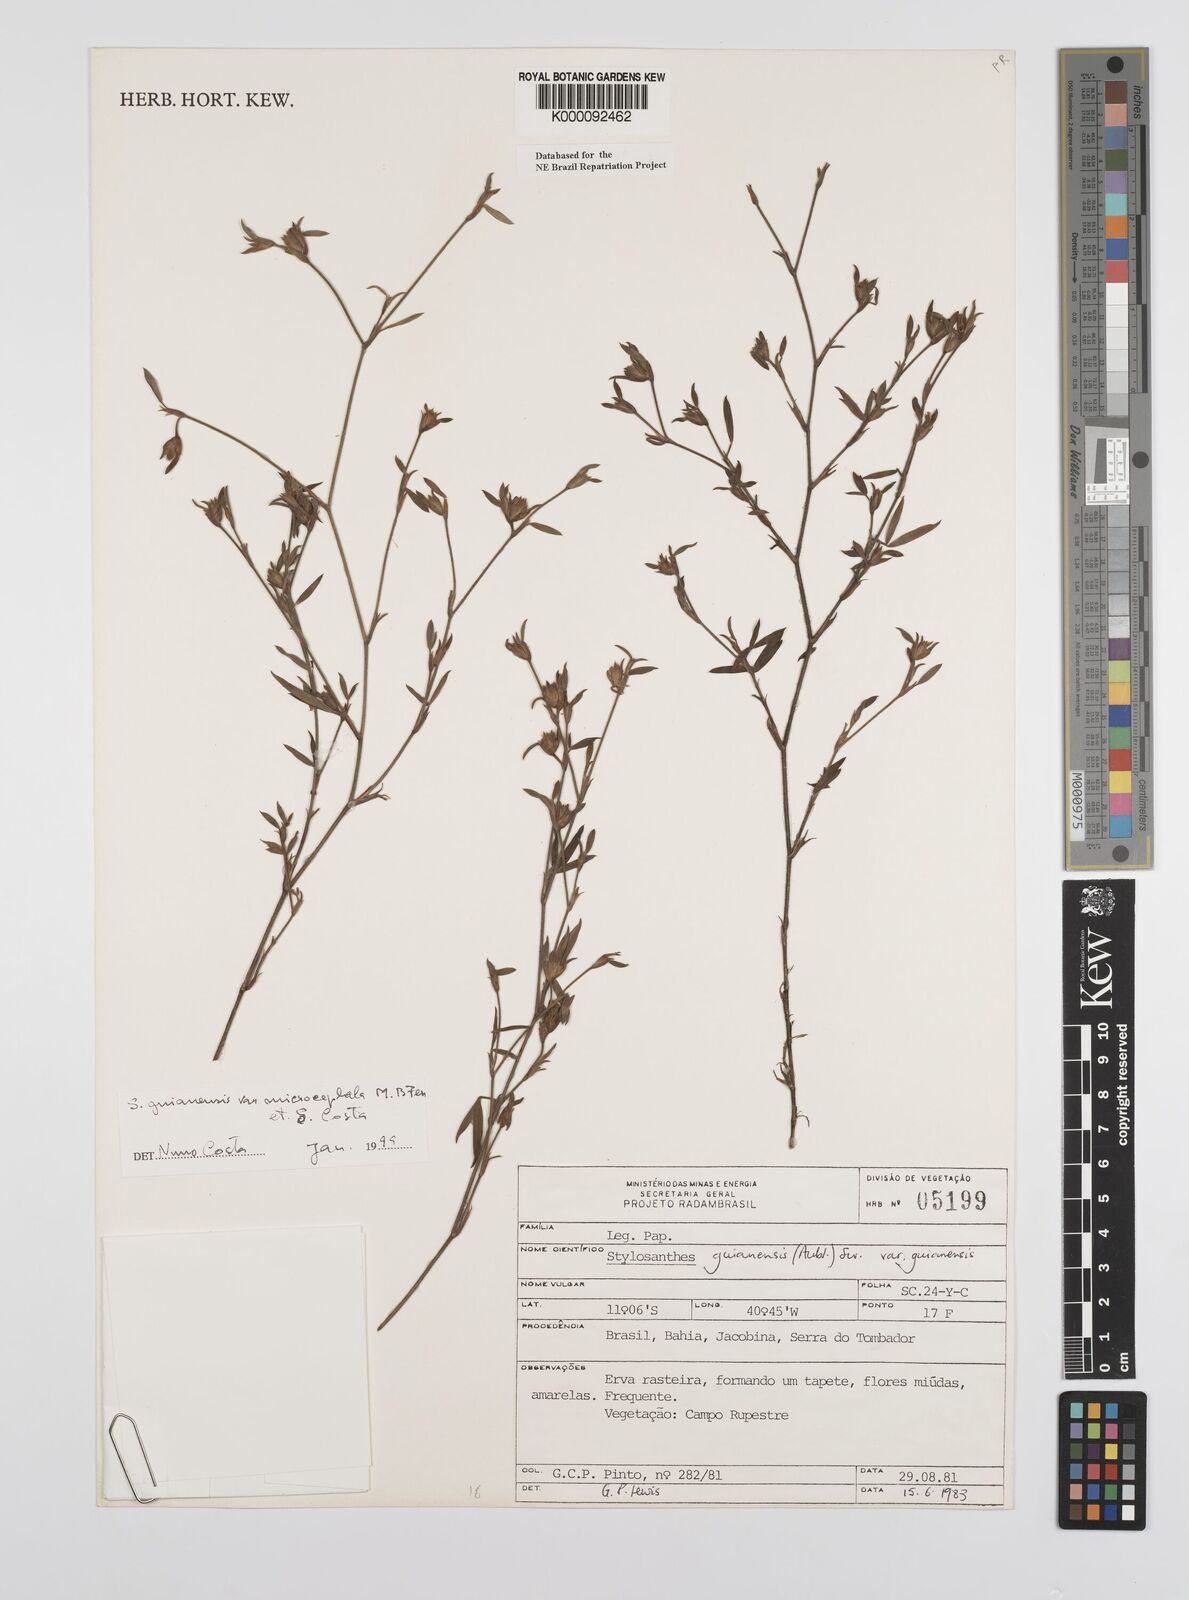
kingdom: Plantae
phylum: Tracheophyta
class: Magnoliopsida
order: Fabales
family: Fabaceae
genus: Stylosanthes
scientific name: Stylosanthes guianensis
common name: Pencil flower
